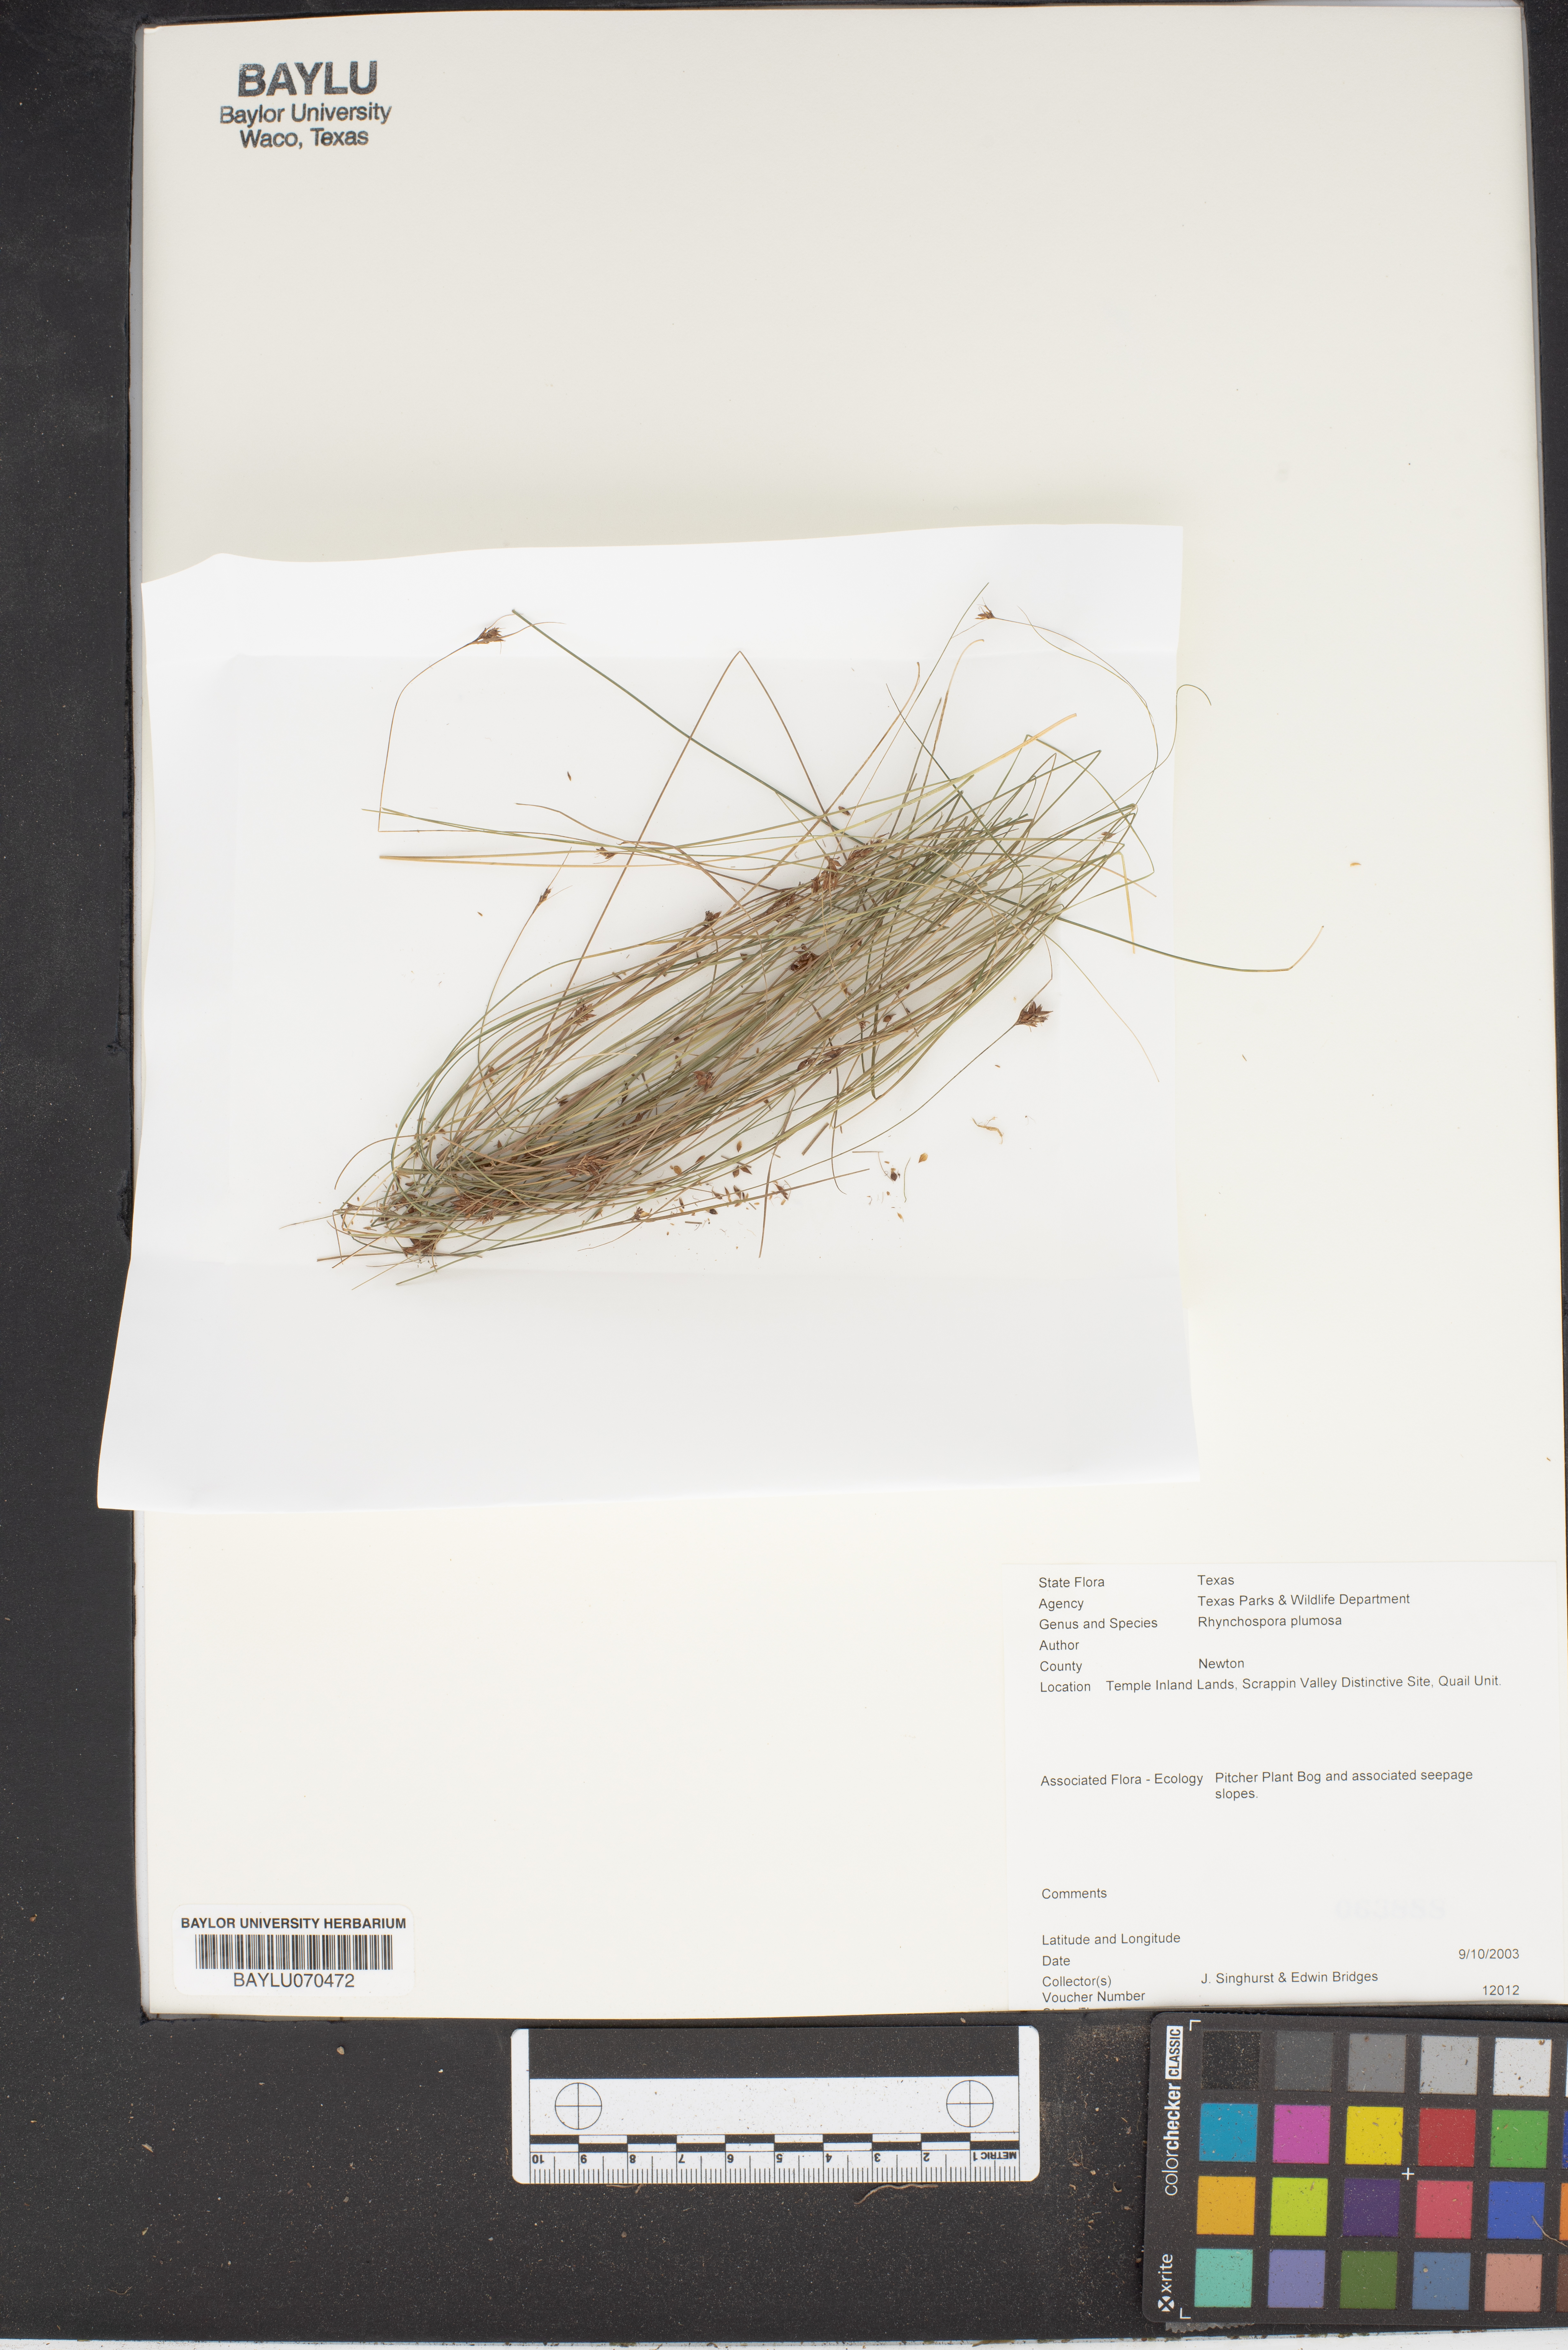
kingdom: Plantae
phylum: Tracheophyta
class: Liliopsida
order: Poales
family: Cyperaceae
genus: Rhynchospora
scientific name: Rhynchospora plumosa
